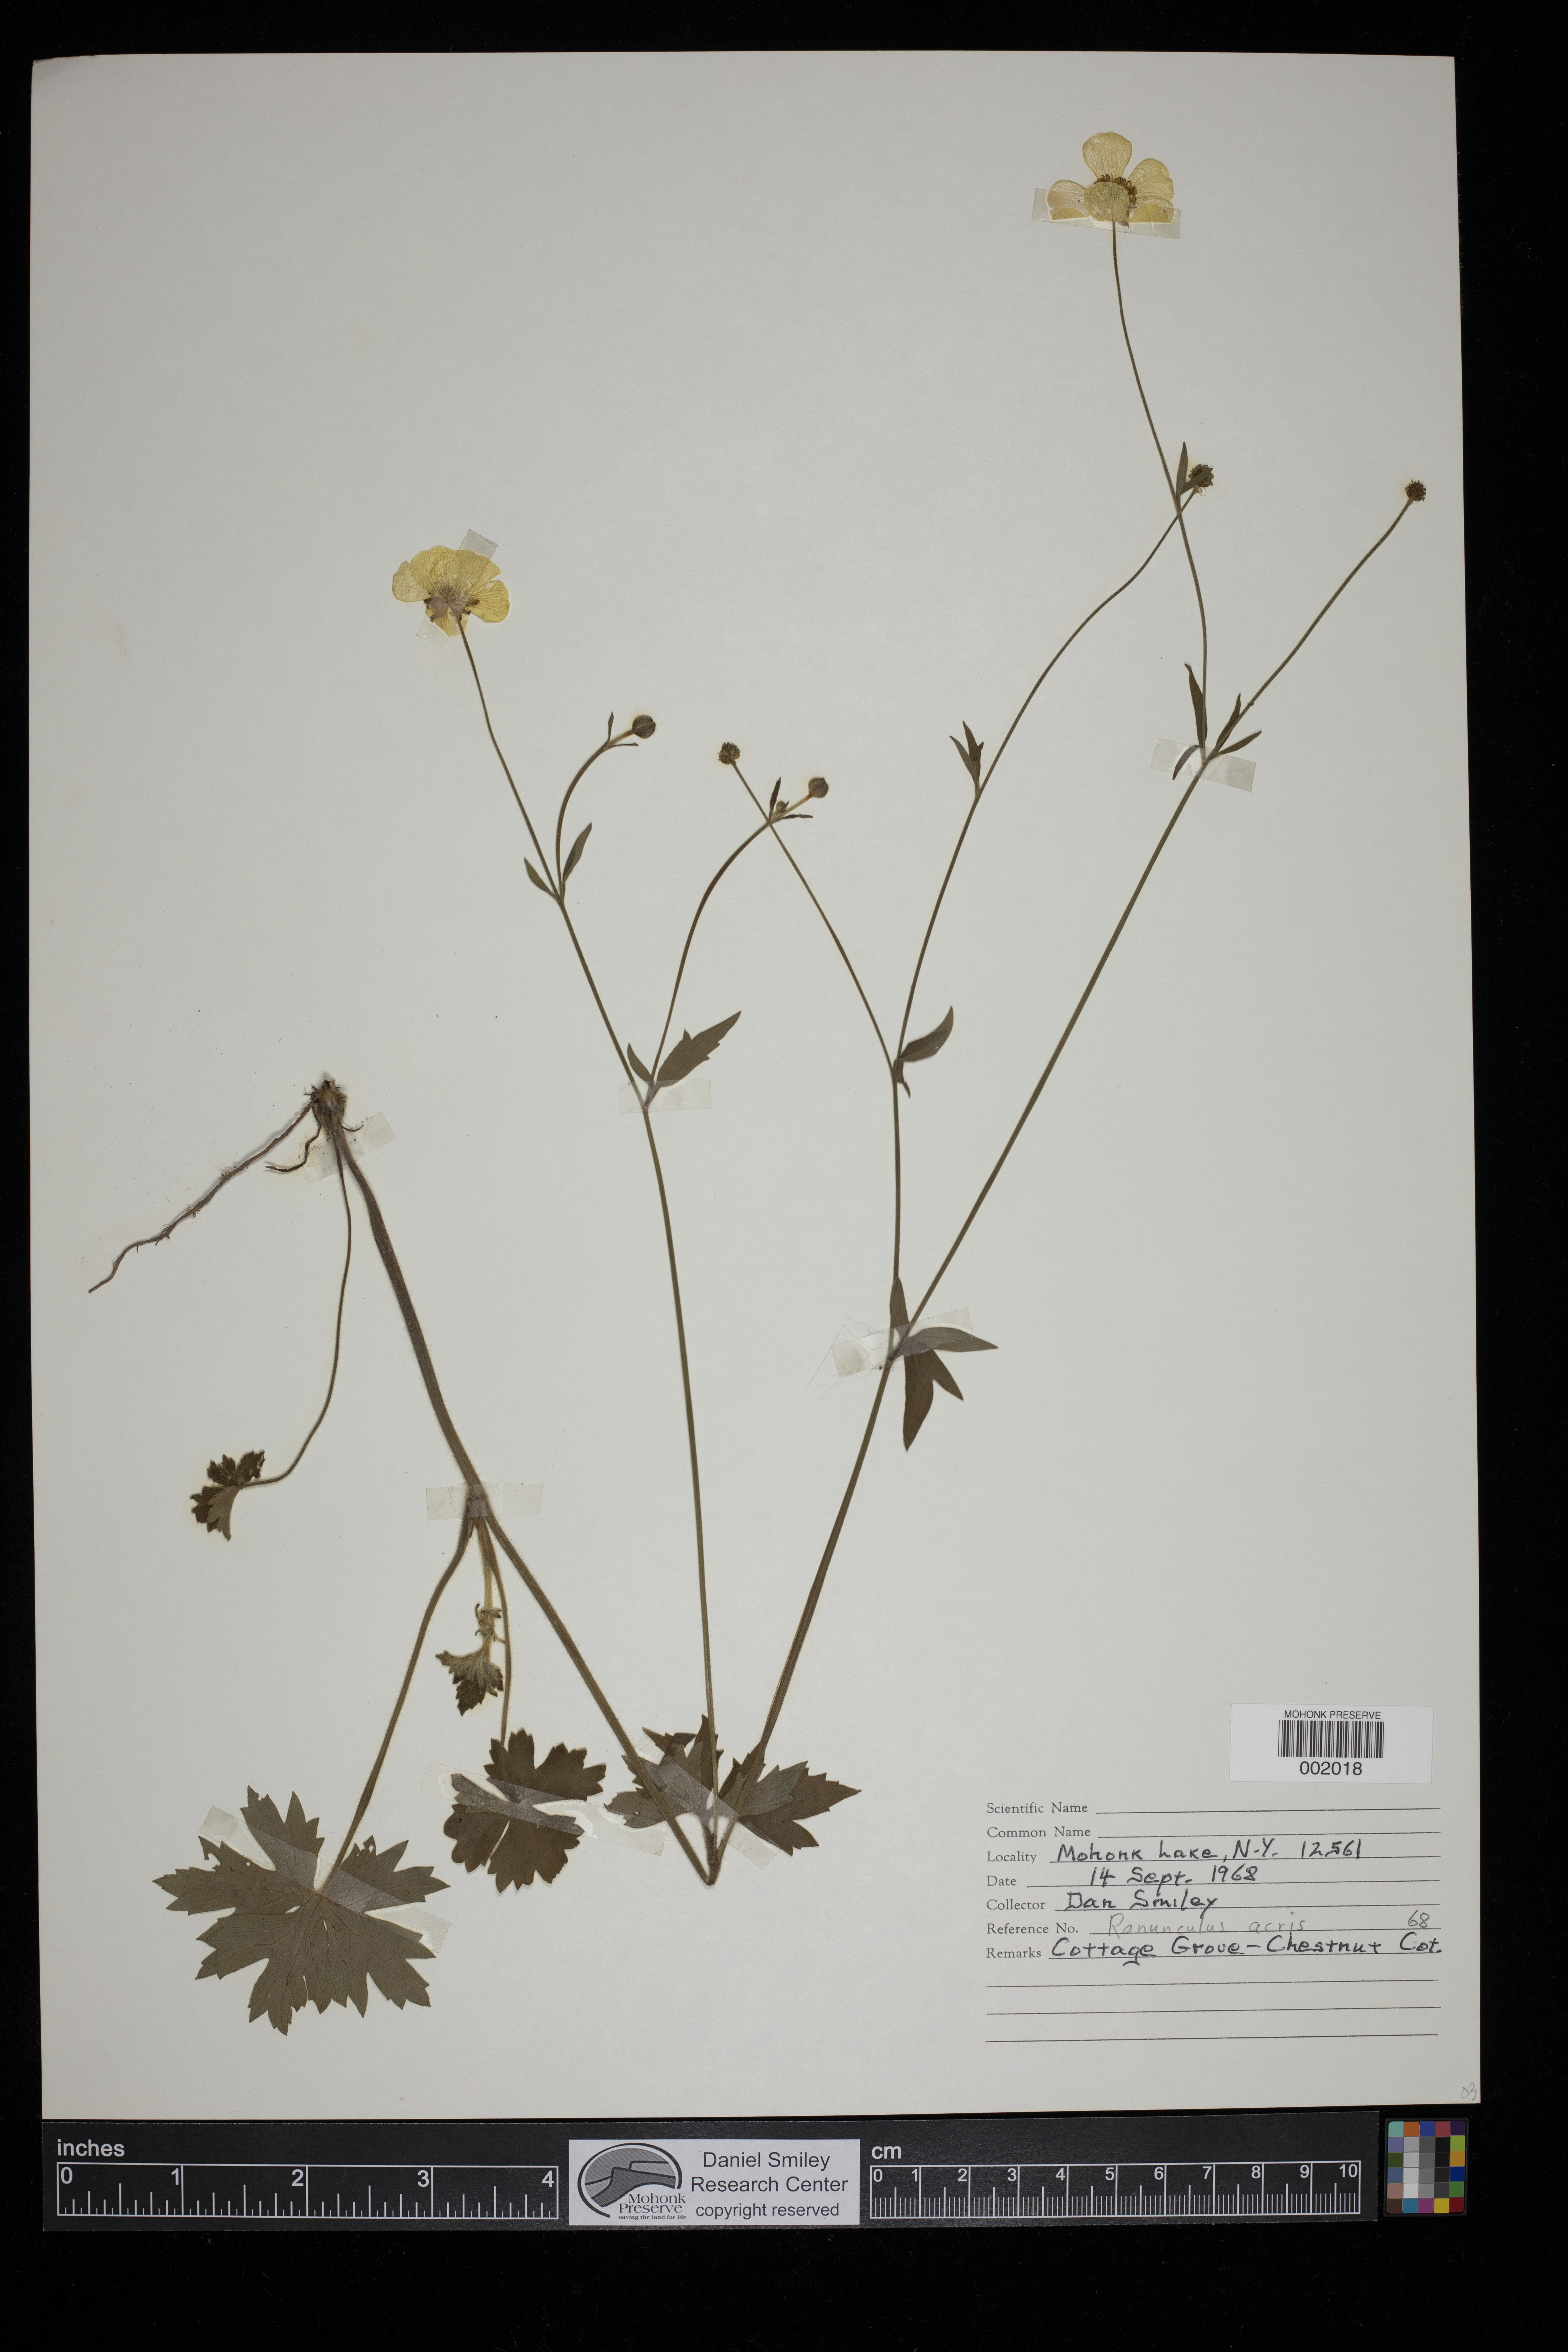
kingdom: Plantae
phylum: Tracheophyta
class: Magnoliopsida
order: Ranunculales
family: Ranunculaceae
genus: Ranunculus
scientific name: Ranunculus acris
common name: Meadow buttercup
